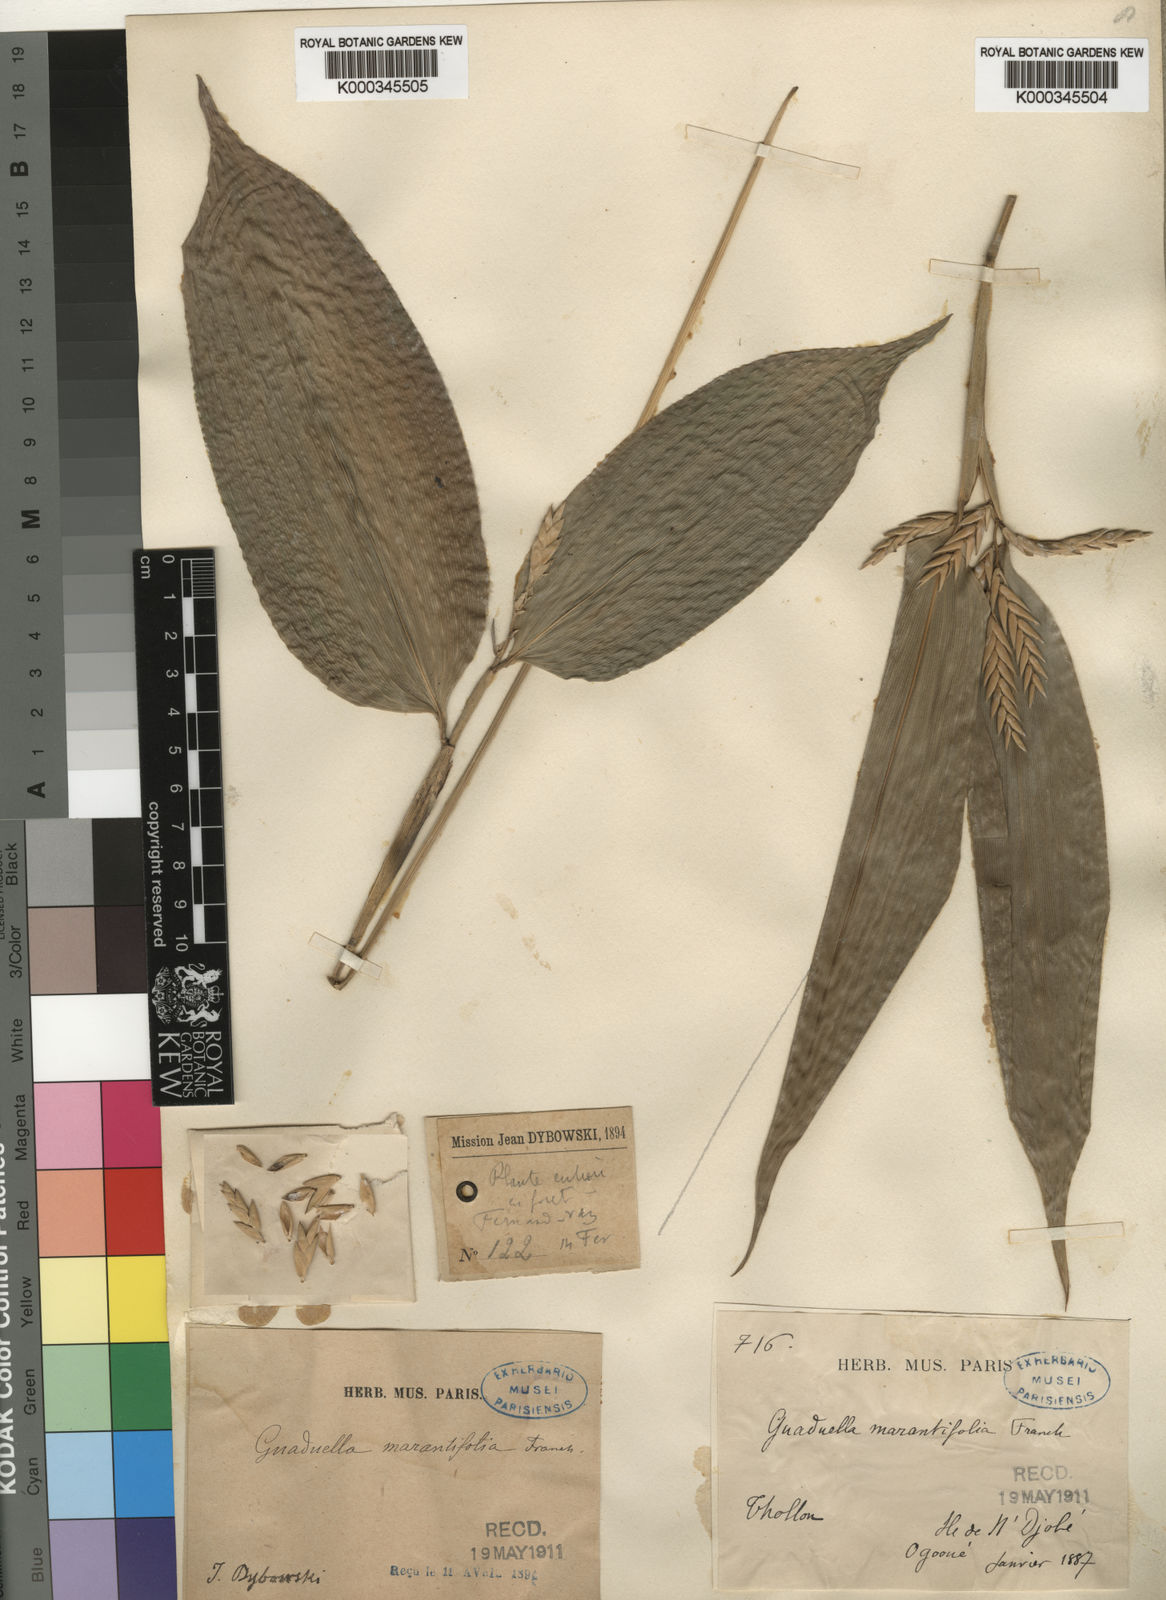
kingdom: Plantae
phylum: Tracheophyta
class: Liliopsida
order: Poales
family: Poaceae
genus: Guaduella
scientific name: Guaduella marantifolia
